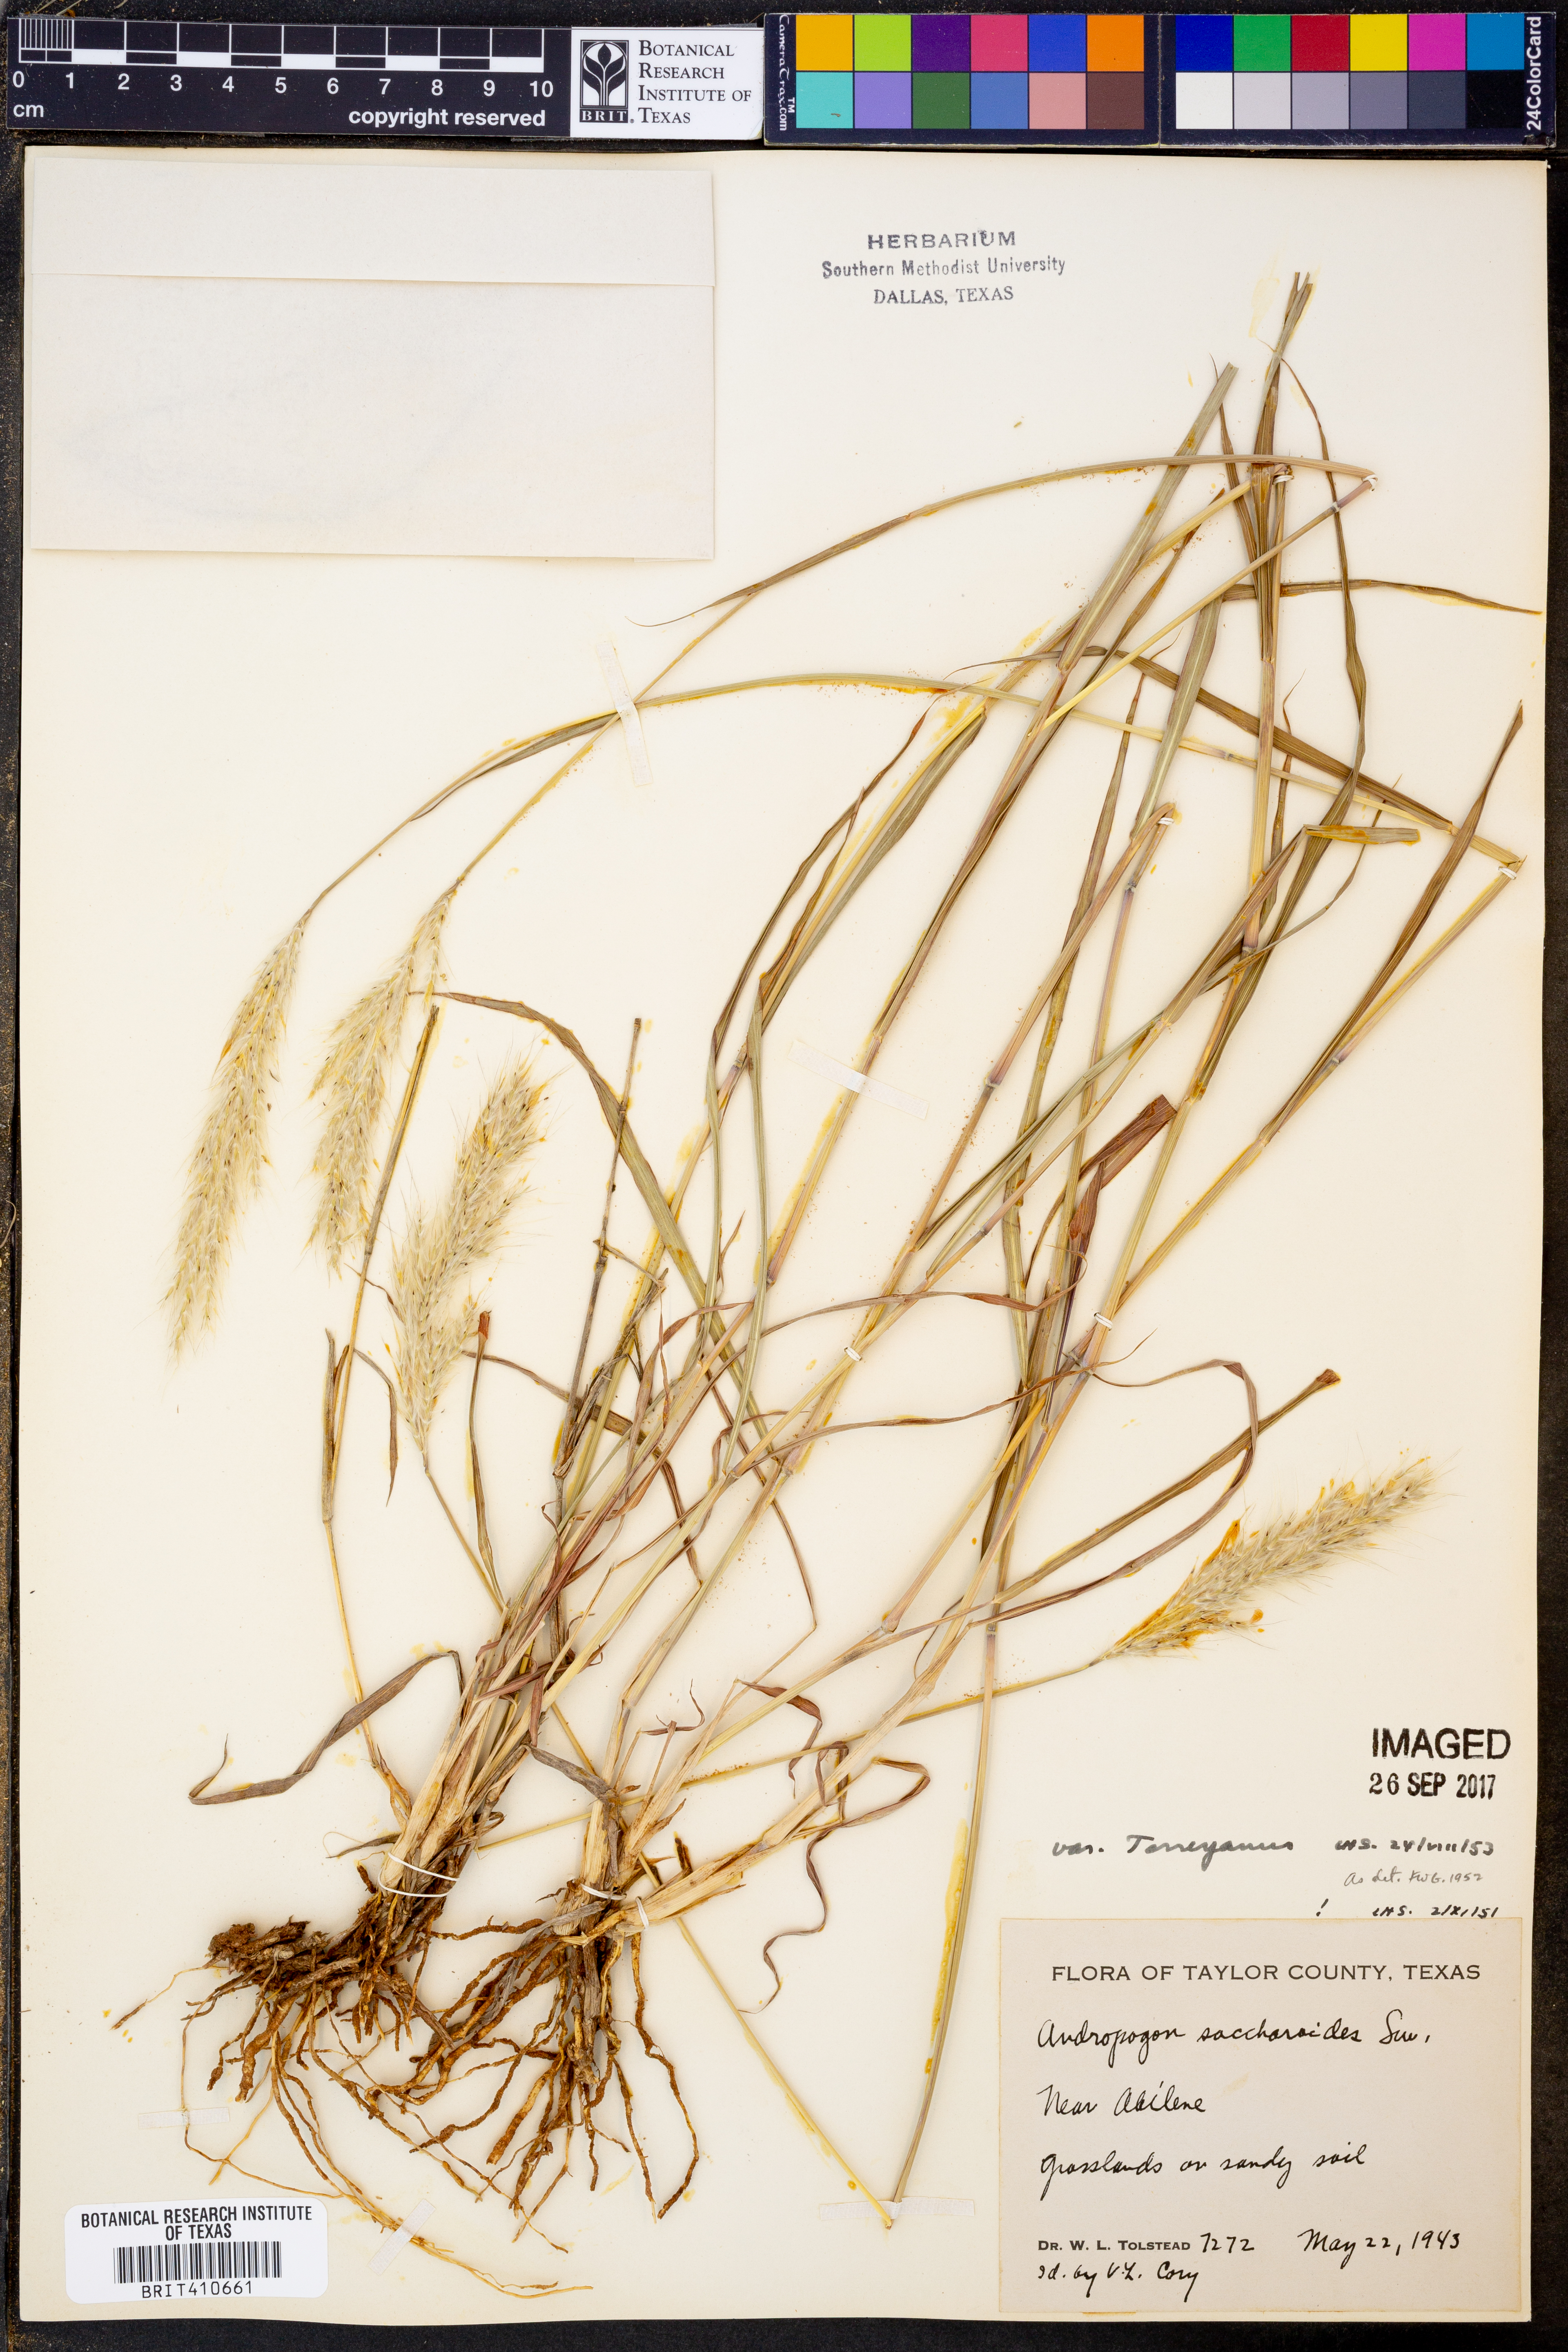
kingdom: Plantae
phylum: Tracheophyta
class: Liliopsida
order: Poales
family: Poaceae
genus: Bothriochloa
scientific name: Bothriochloa torreyana
